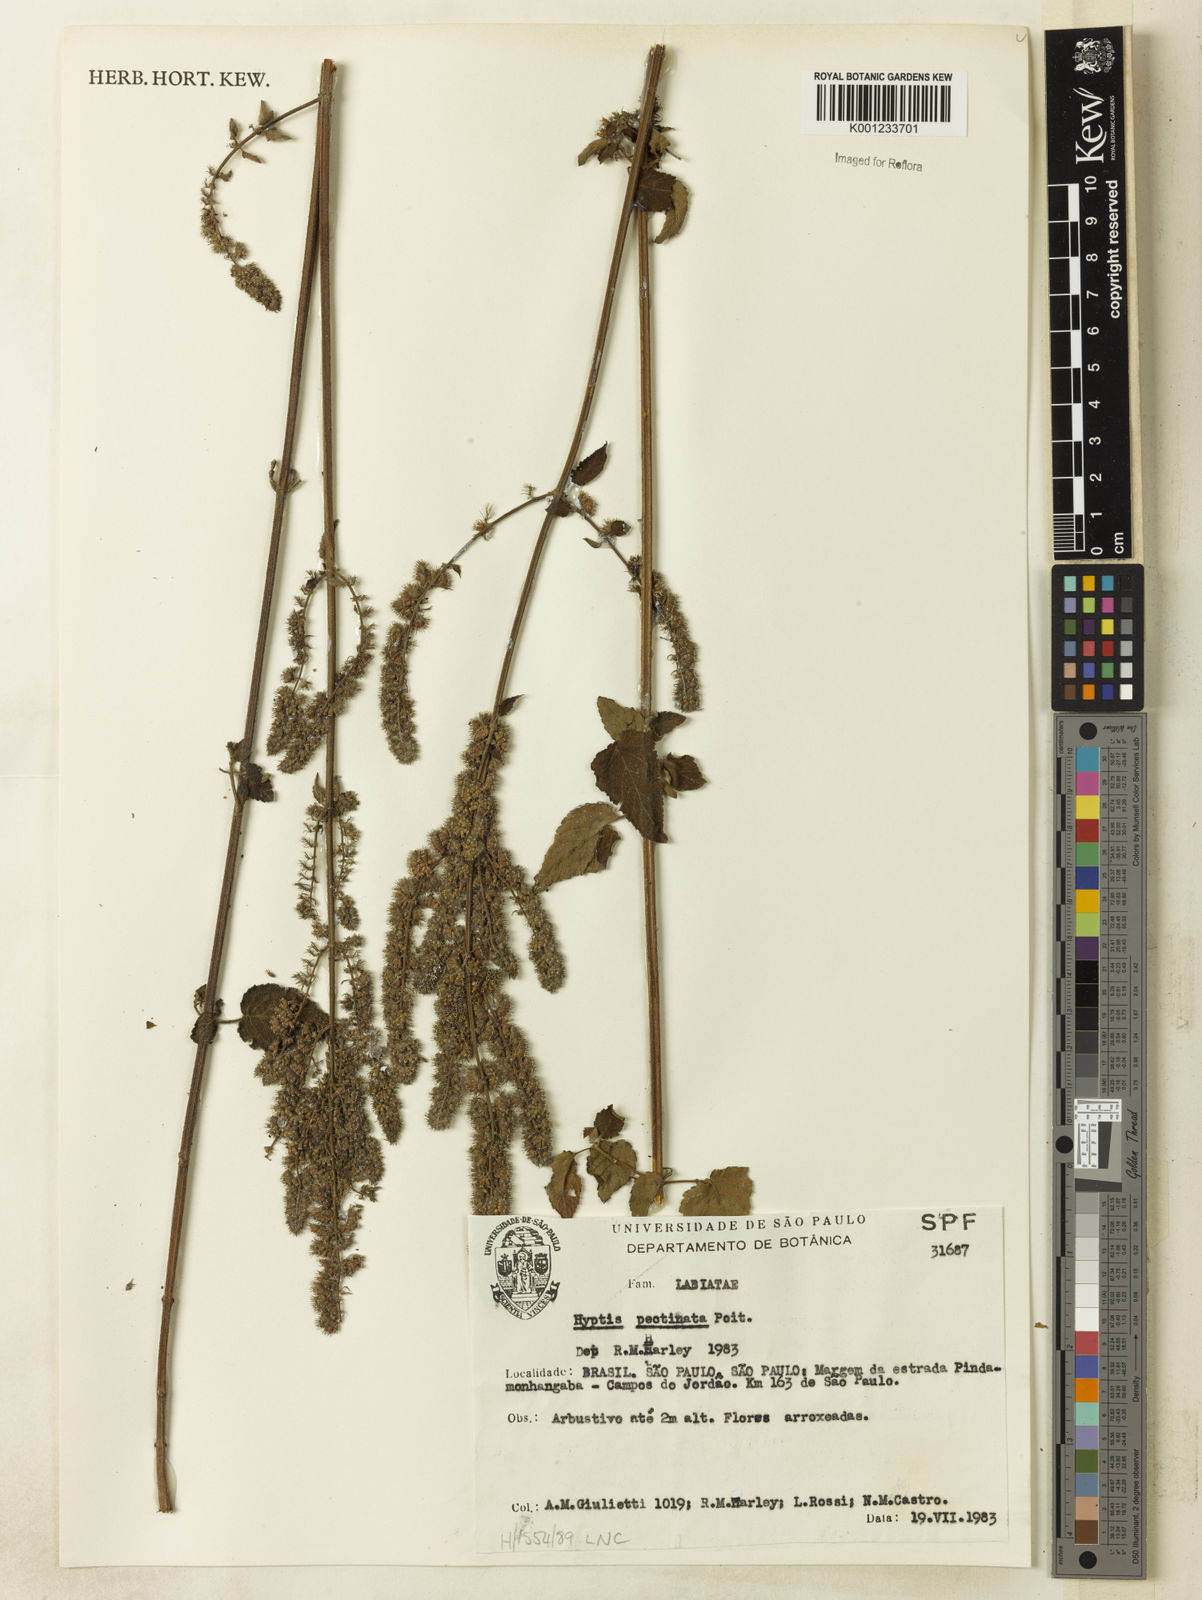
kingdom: Plantae
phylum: Tracheophyta
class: Magnoliopsida
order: Lamiales
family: Lamiaceae
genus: Mesosphaerum
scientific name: Mesosphaerum pectinatum
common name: Comb hyptis
